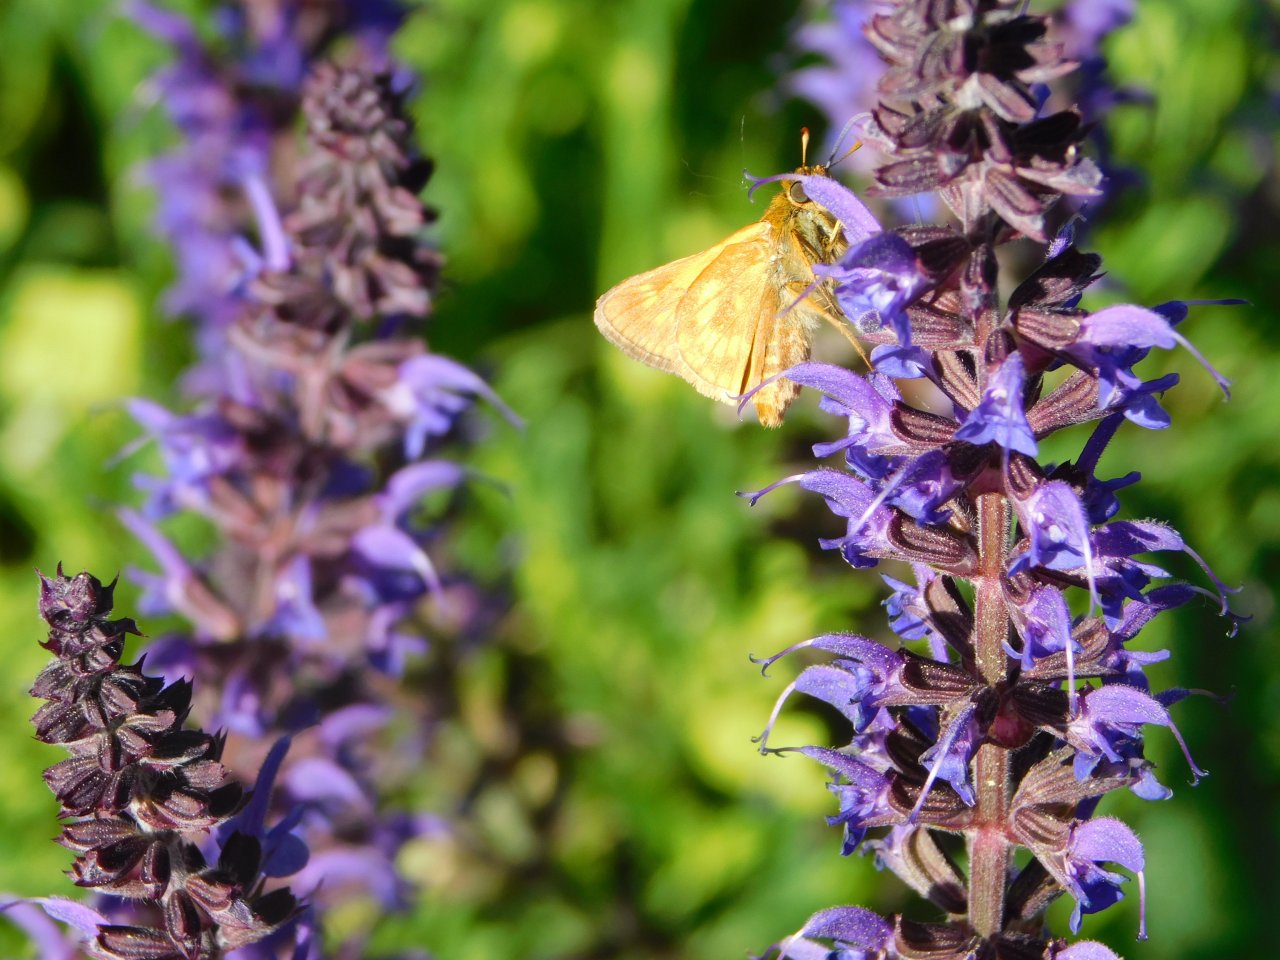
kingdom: Animalia
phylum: Arthropoda
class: Insecta
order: Lepidoptera
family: Hesperiidae
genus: Polites
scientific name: Polites
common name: Long Dash Skipper
